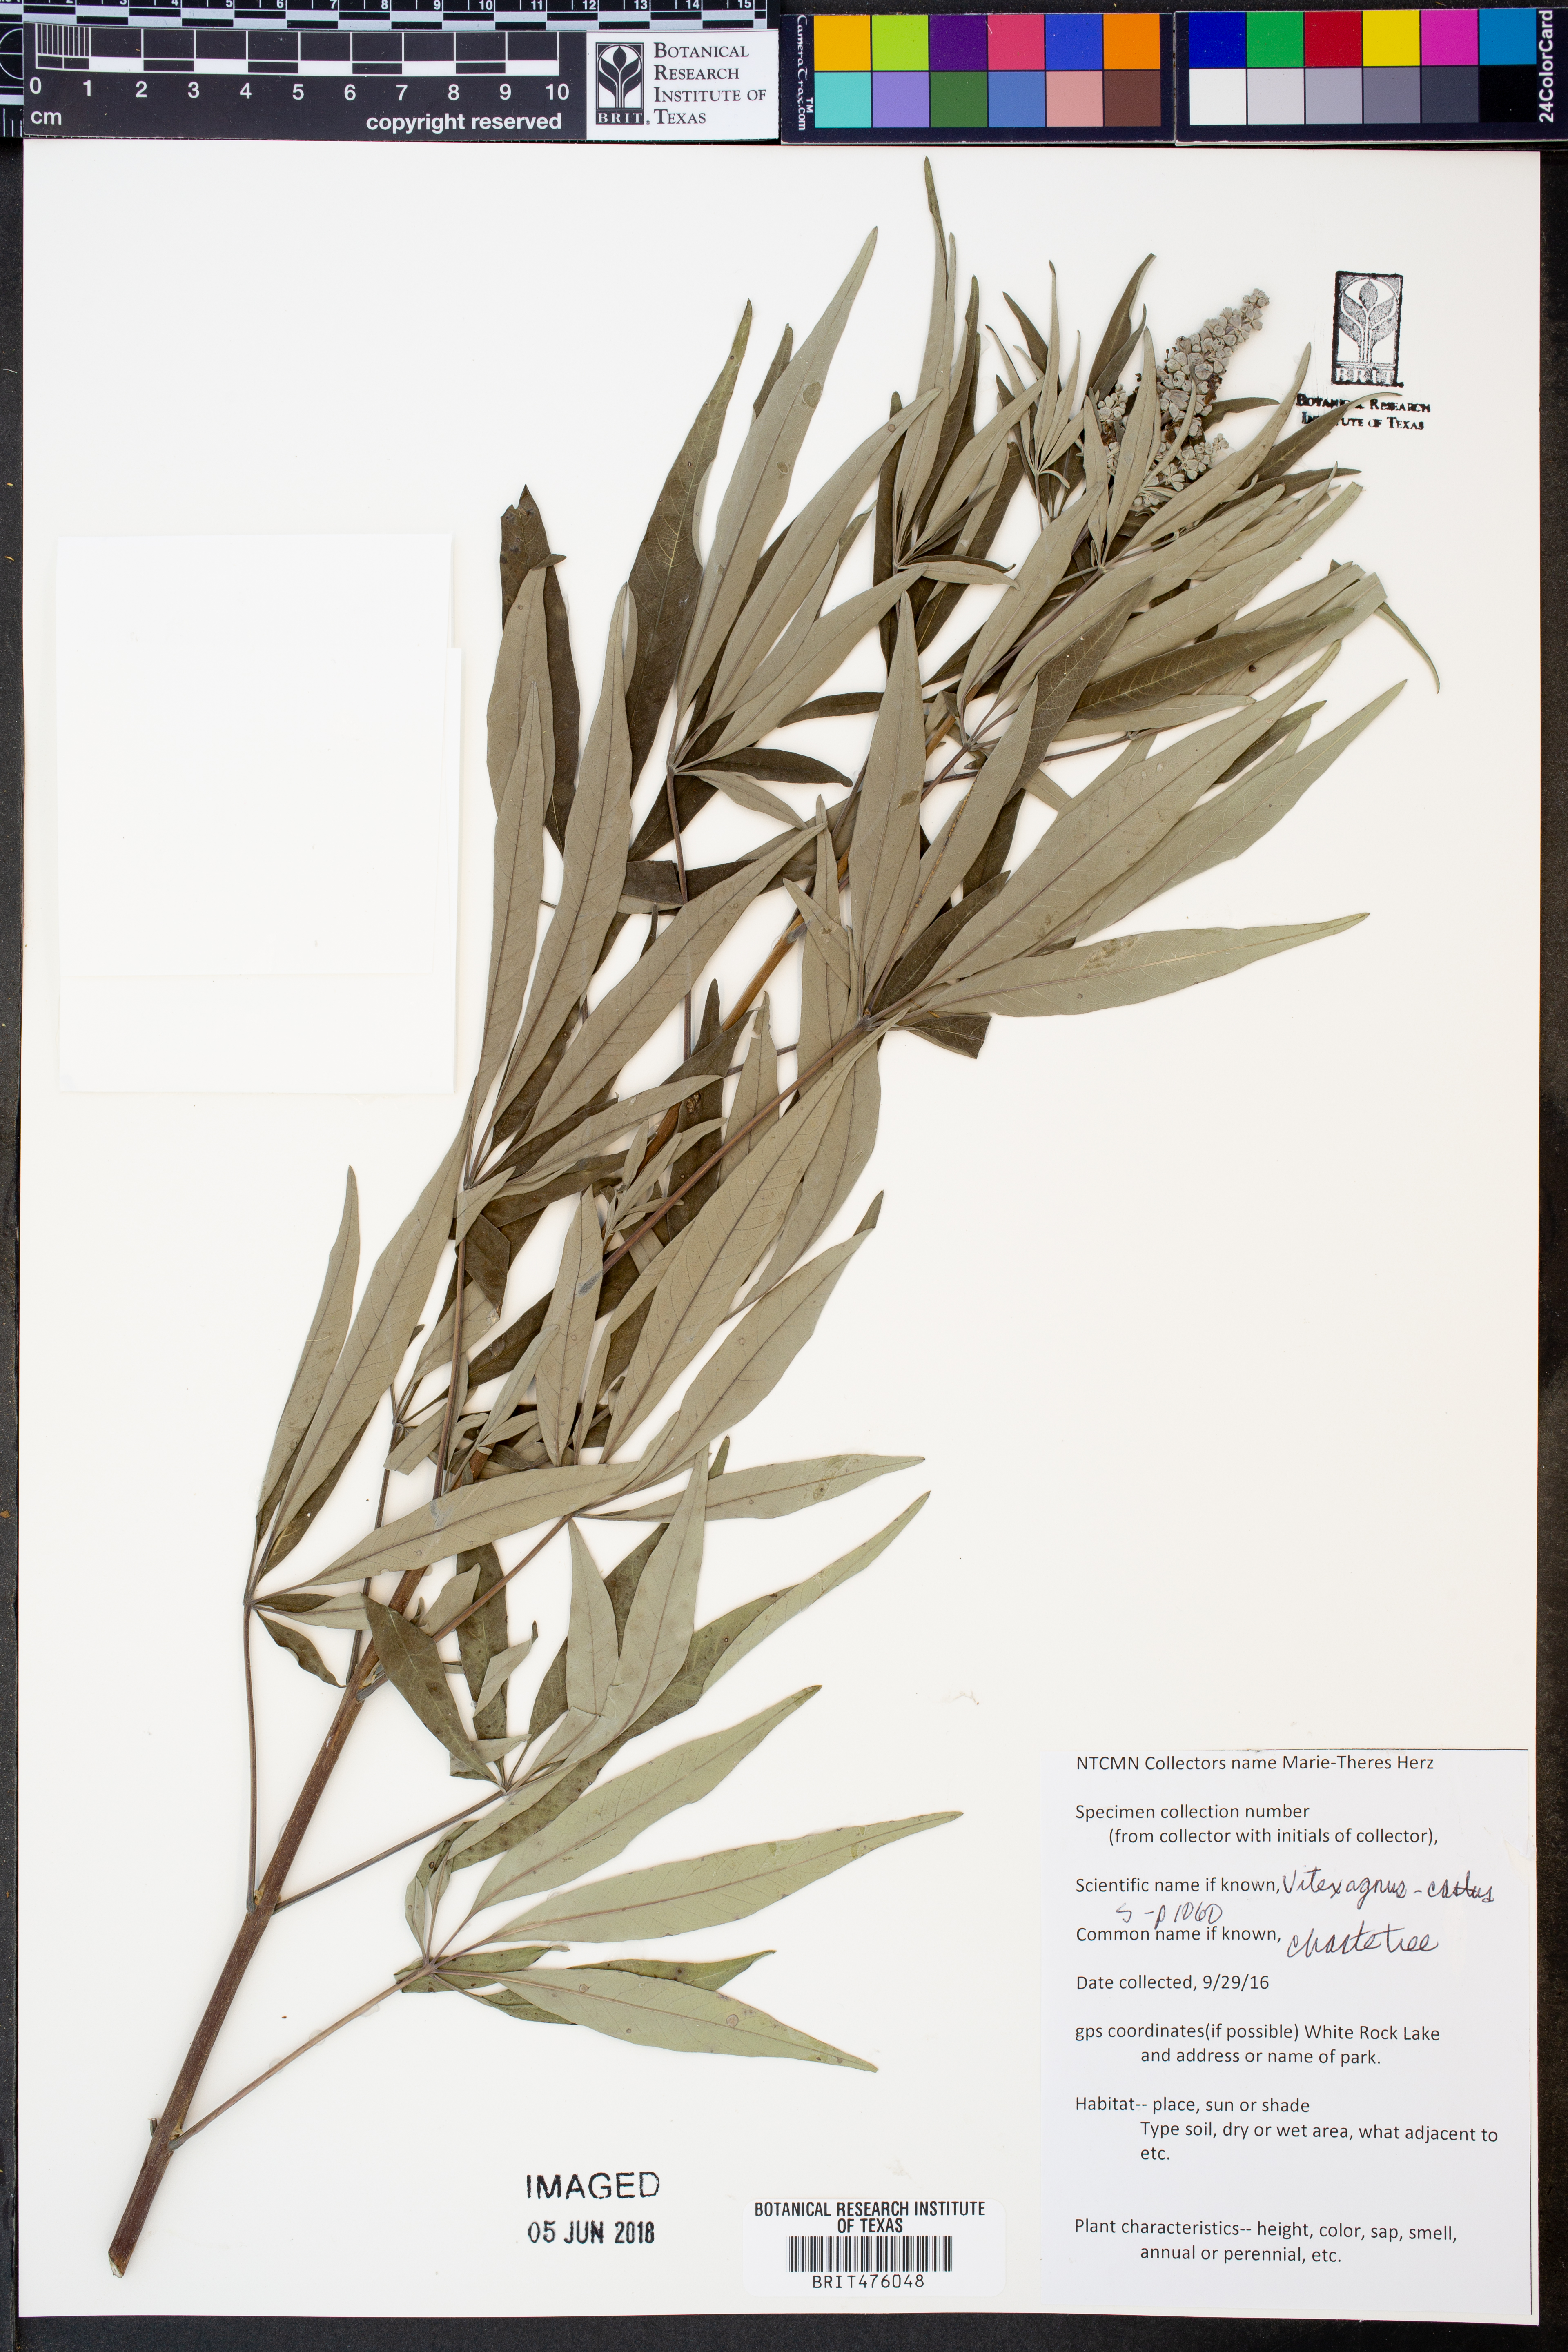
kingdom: Plantae
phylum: Tracheophyta
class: Magnoliopsida
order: Lamiales
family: Lamiaceae
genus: Vitex
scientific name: Vitex agnus-castus
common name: Chasteberry
